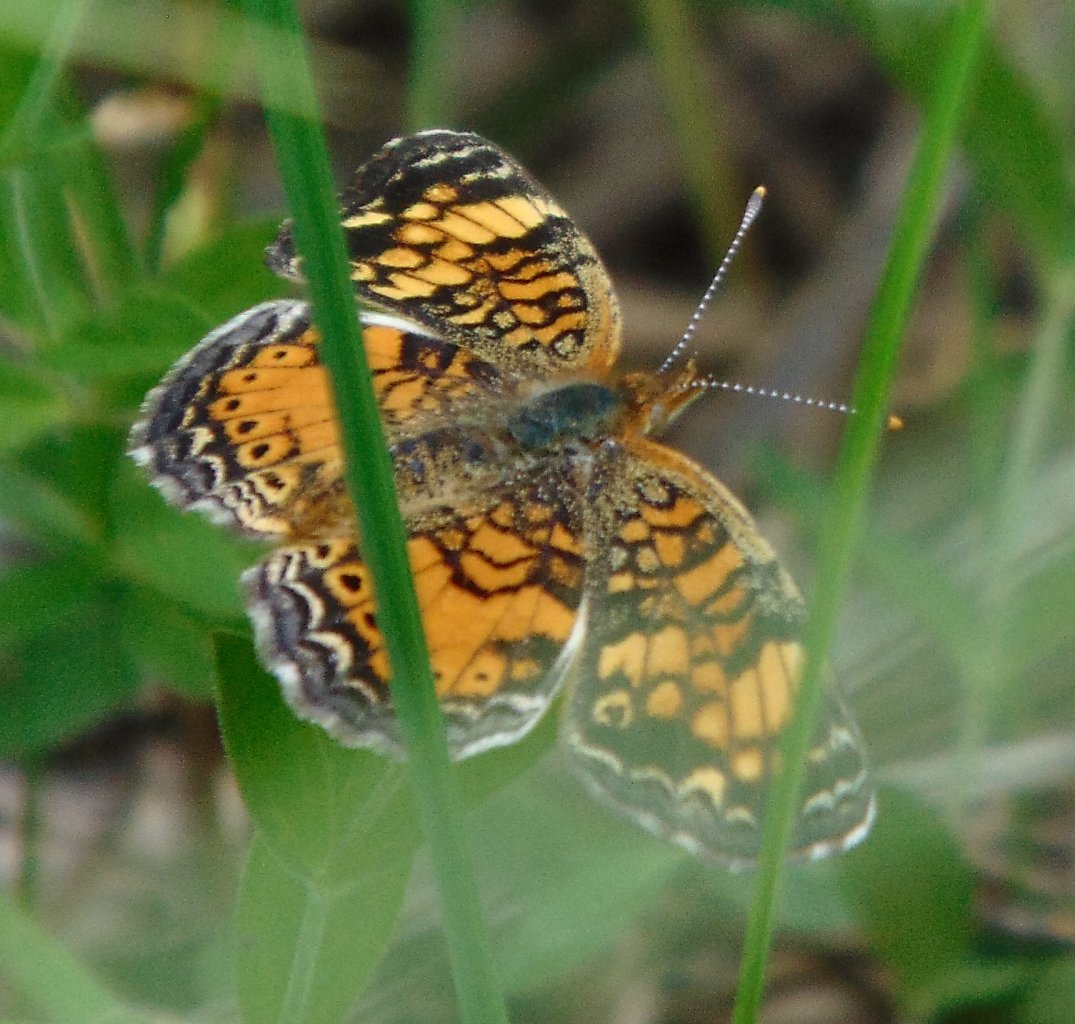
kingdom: Animalia
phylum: Arthropoda
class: Insecta
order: Lepidoptera
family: Nymphalidae
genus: Phyciodes
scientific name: Phyciodes tharos
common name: Pearl Crescent
